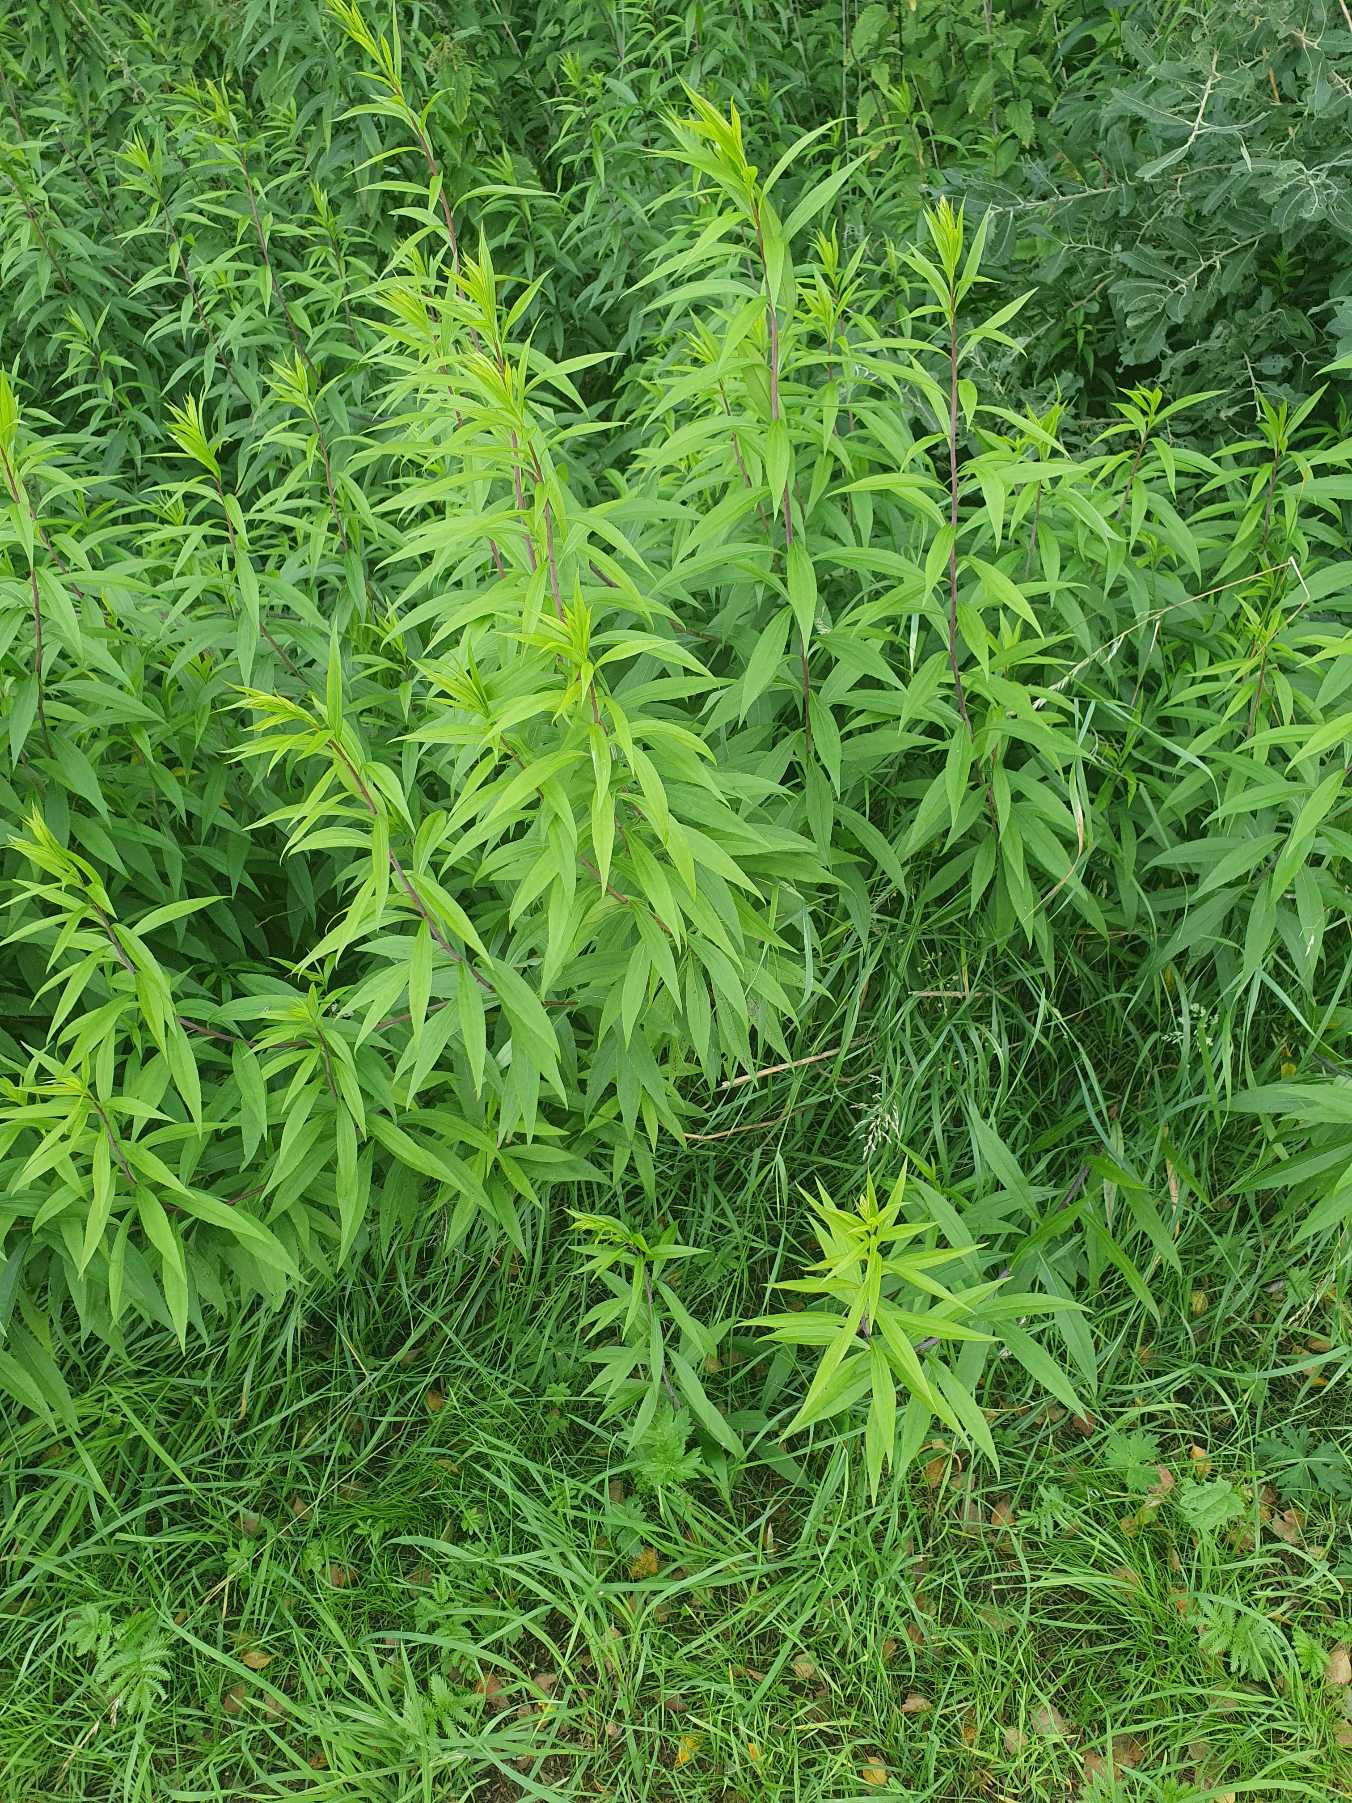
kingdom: Plantae
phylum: Tracheophyta
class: Magnoliopsida
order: Asterales
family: Asteraceae
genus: Solidago
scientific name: Solidago gigantea
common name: Sildig gyldenris
